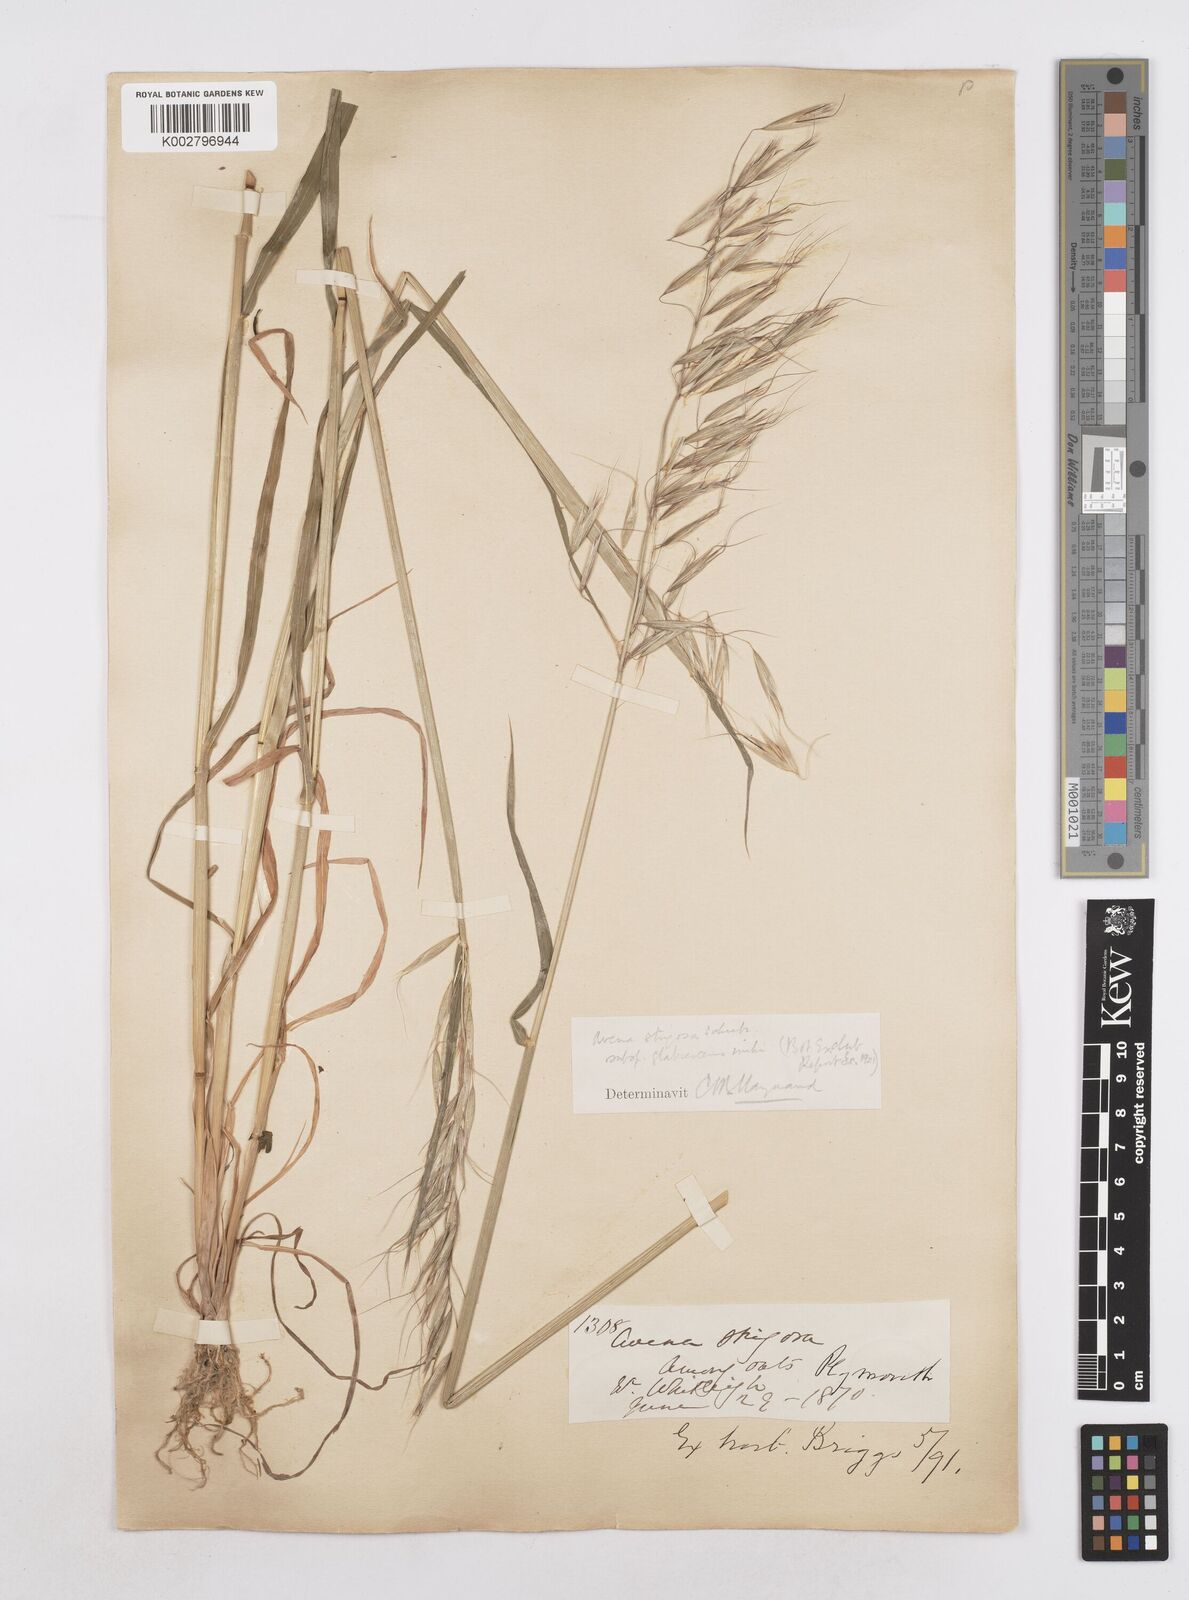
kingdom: Plantae
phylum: Tracheophyta
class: Liliopsida
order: Poales
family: Poaceae
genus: Avena
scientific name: Avena strigosa
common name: Bristle oat
